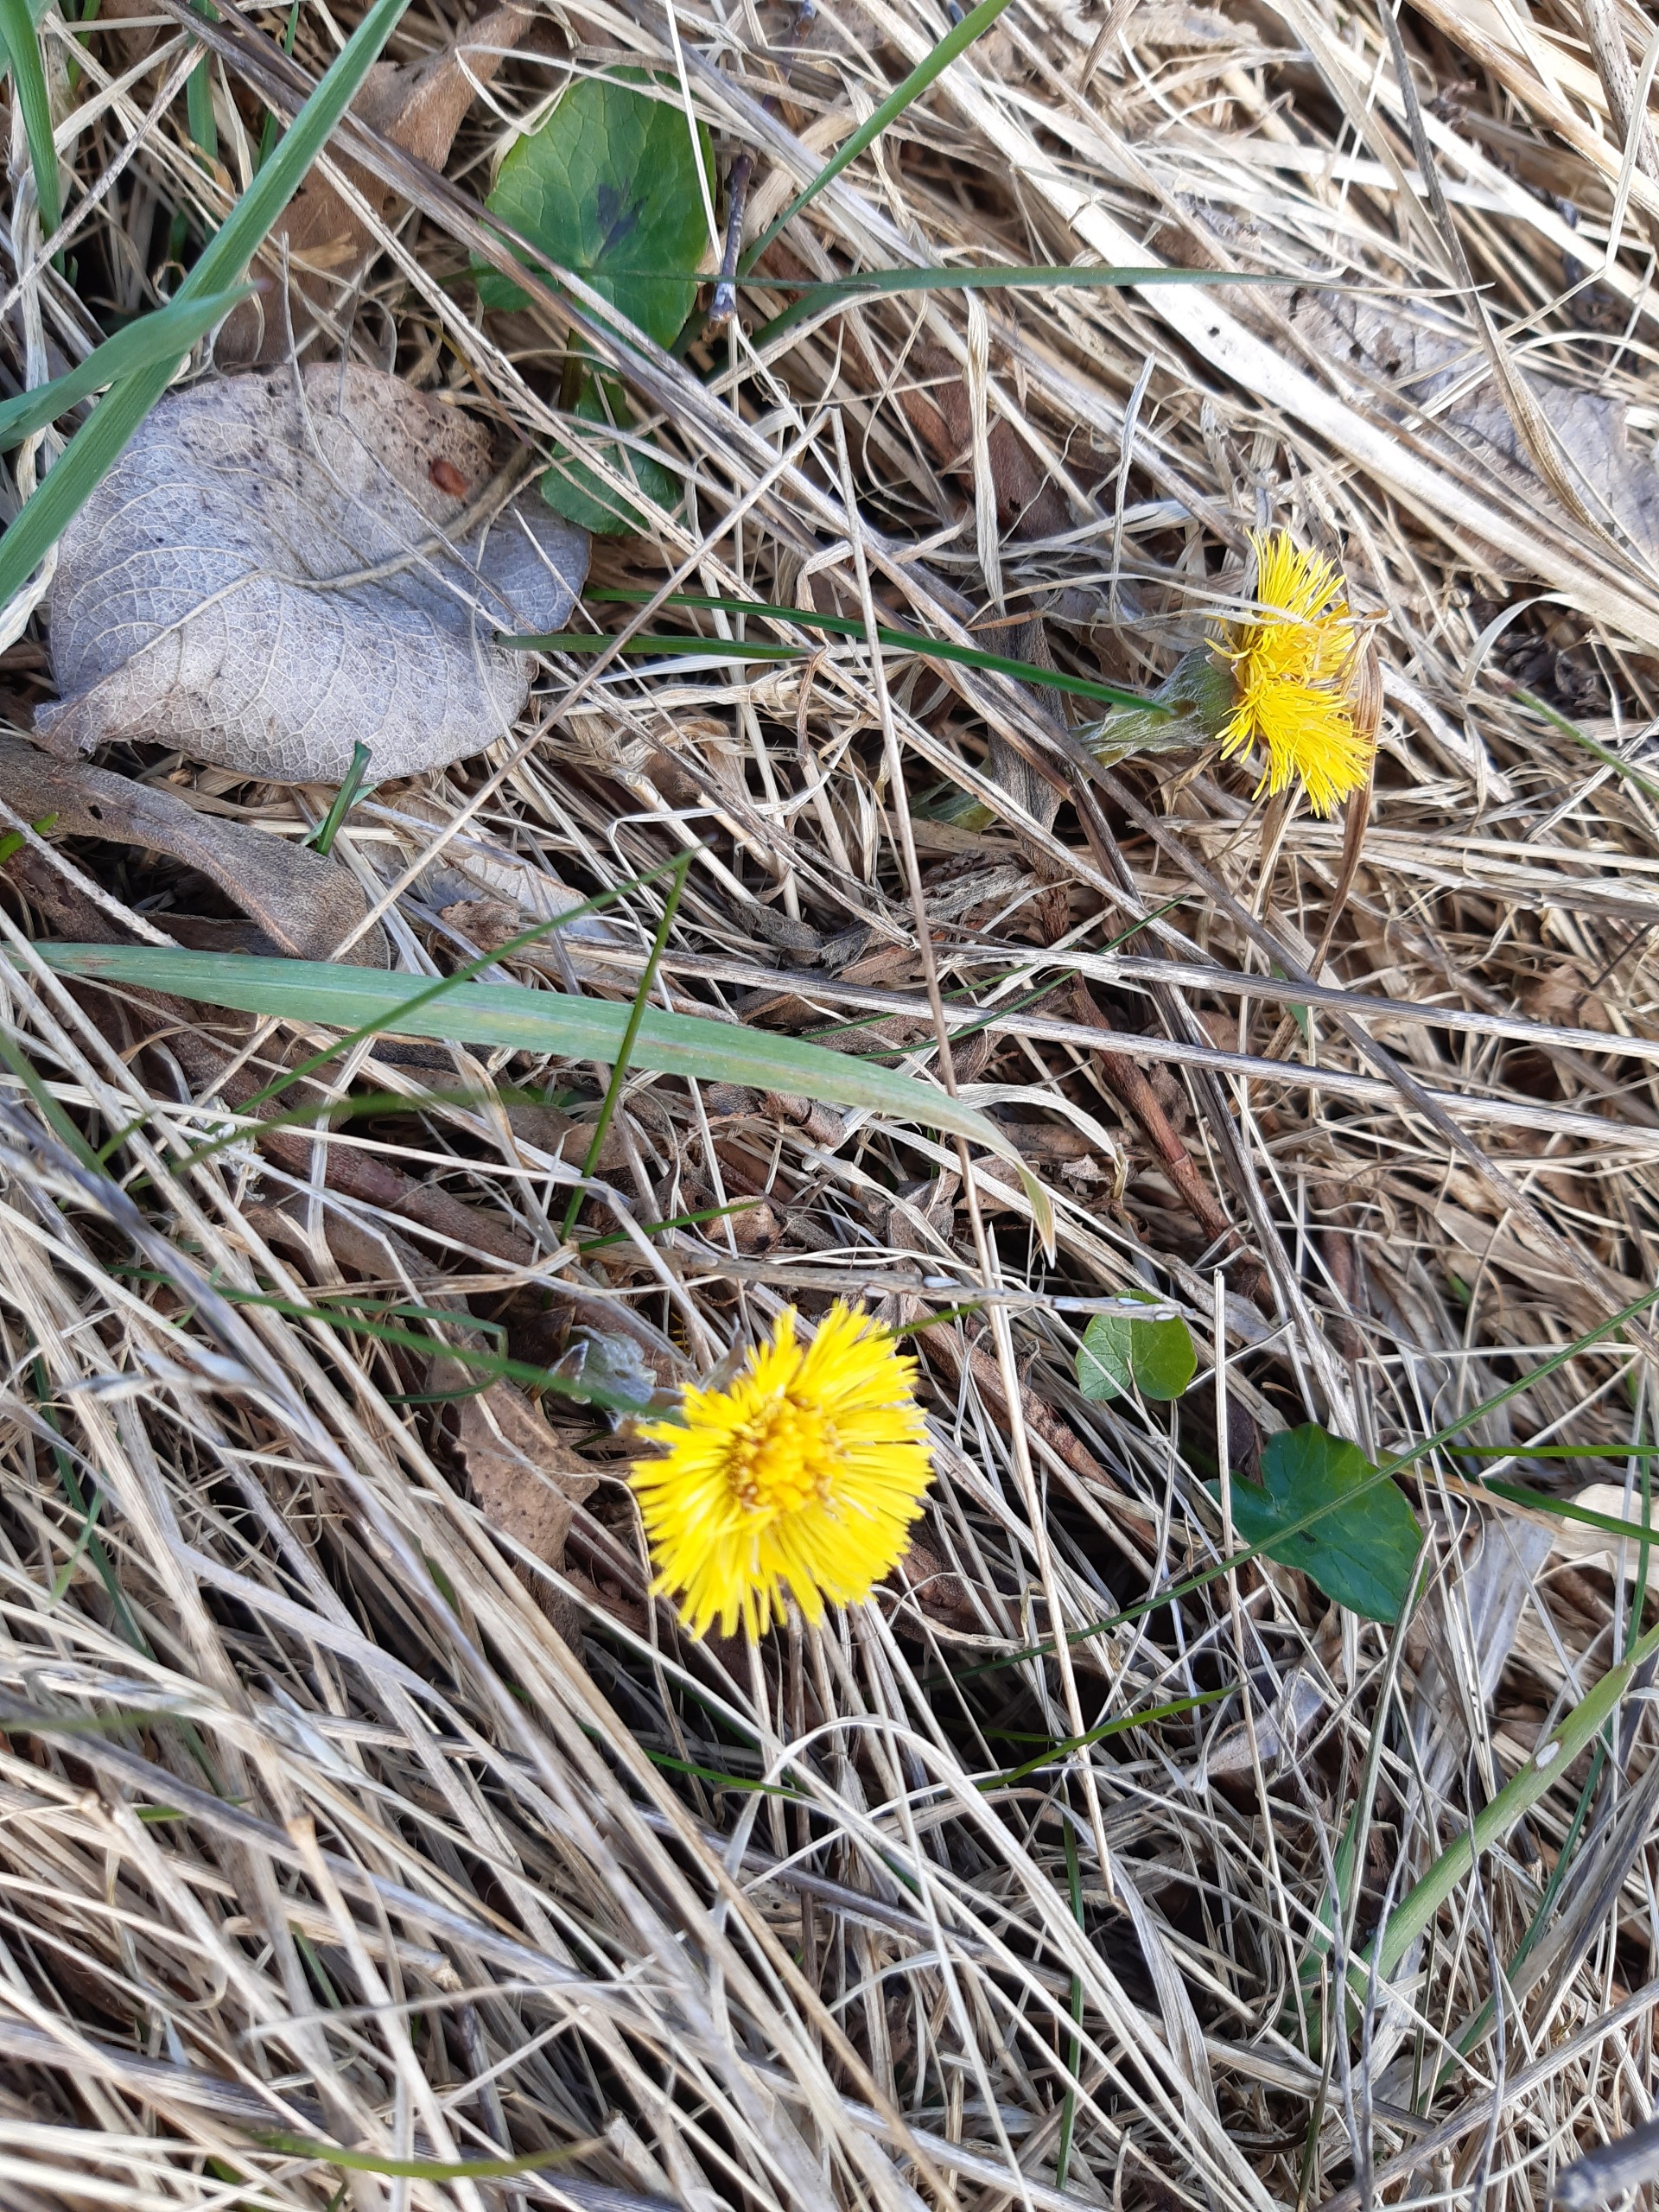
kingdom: Plantae
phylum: Tracheophyta
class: Magnoliopsida
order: Asterales
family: Asteraceae
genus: Tussilago
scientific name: Tussilago farfara
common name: Følfod
